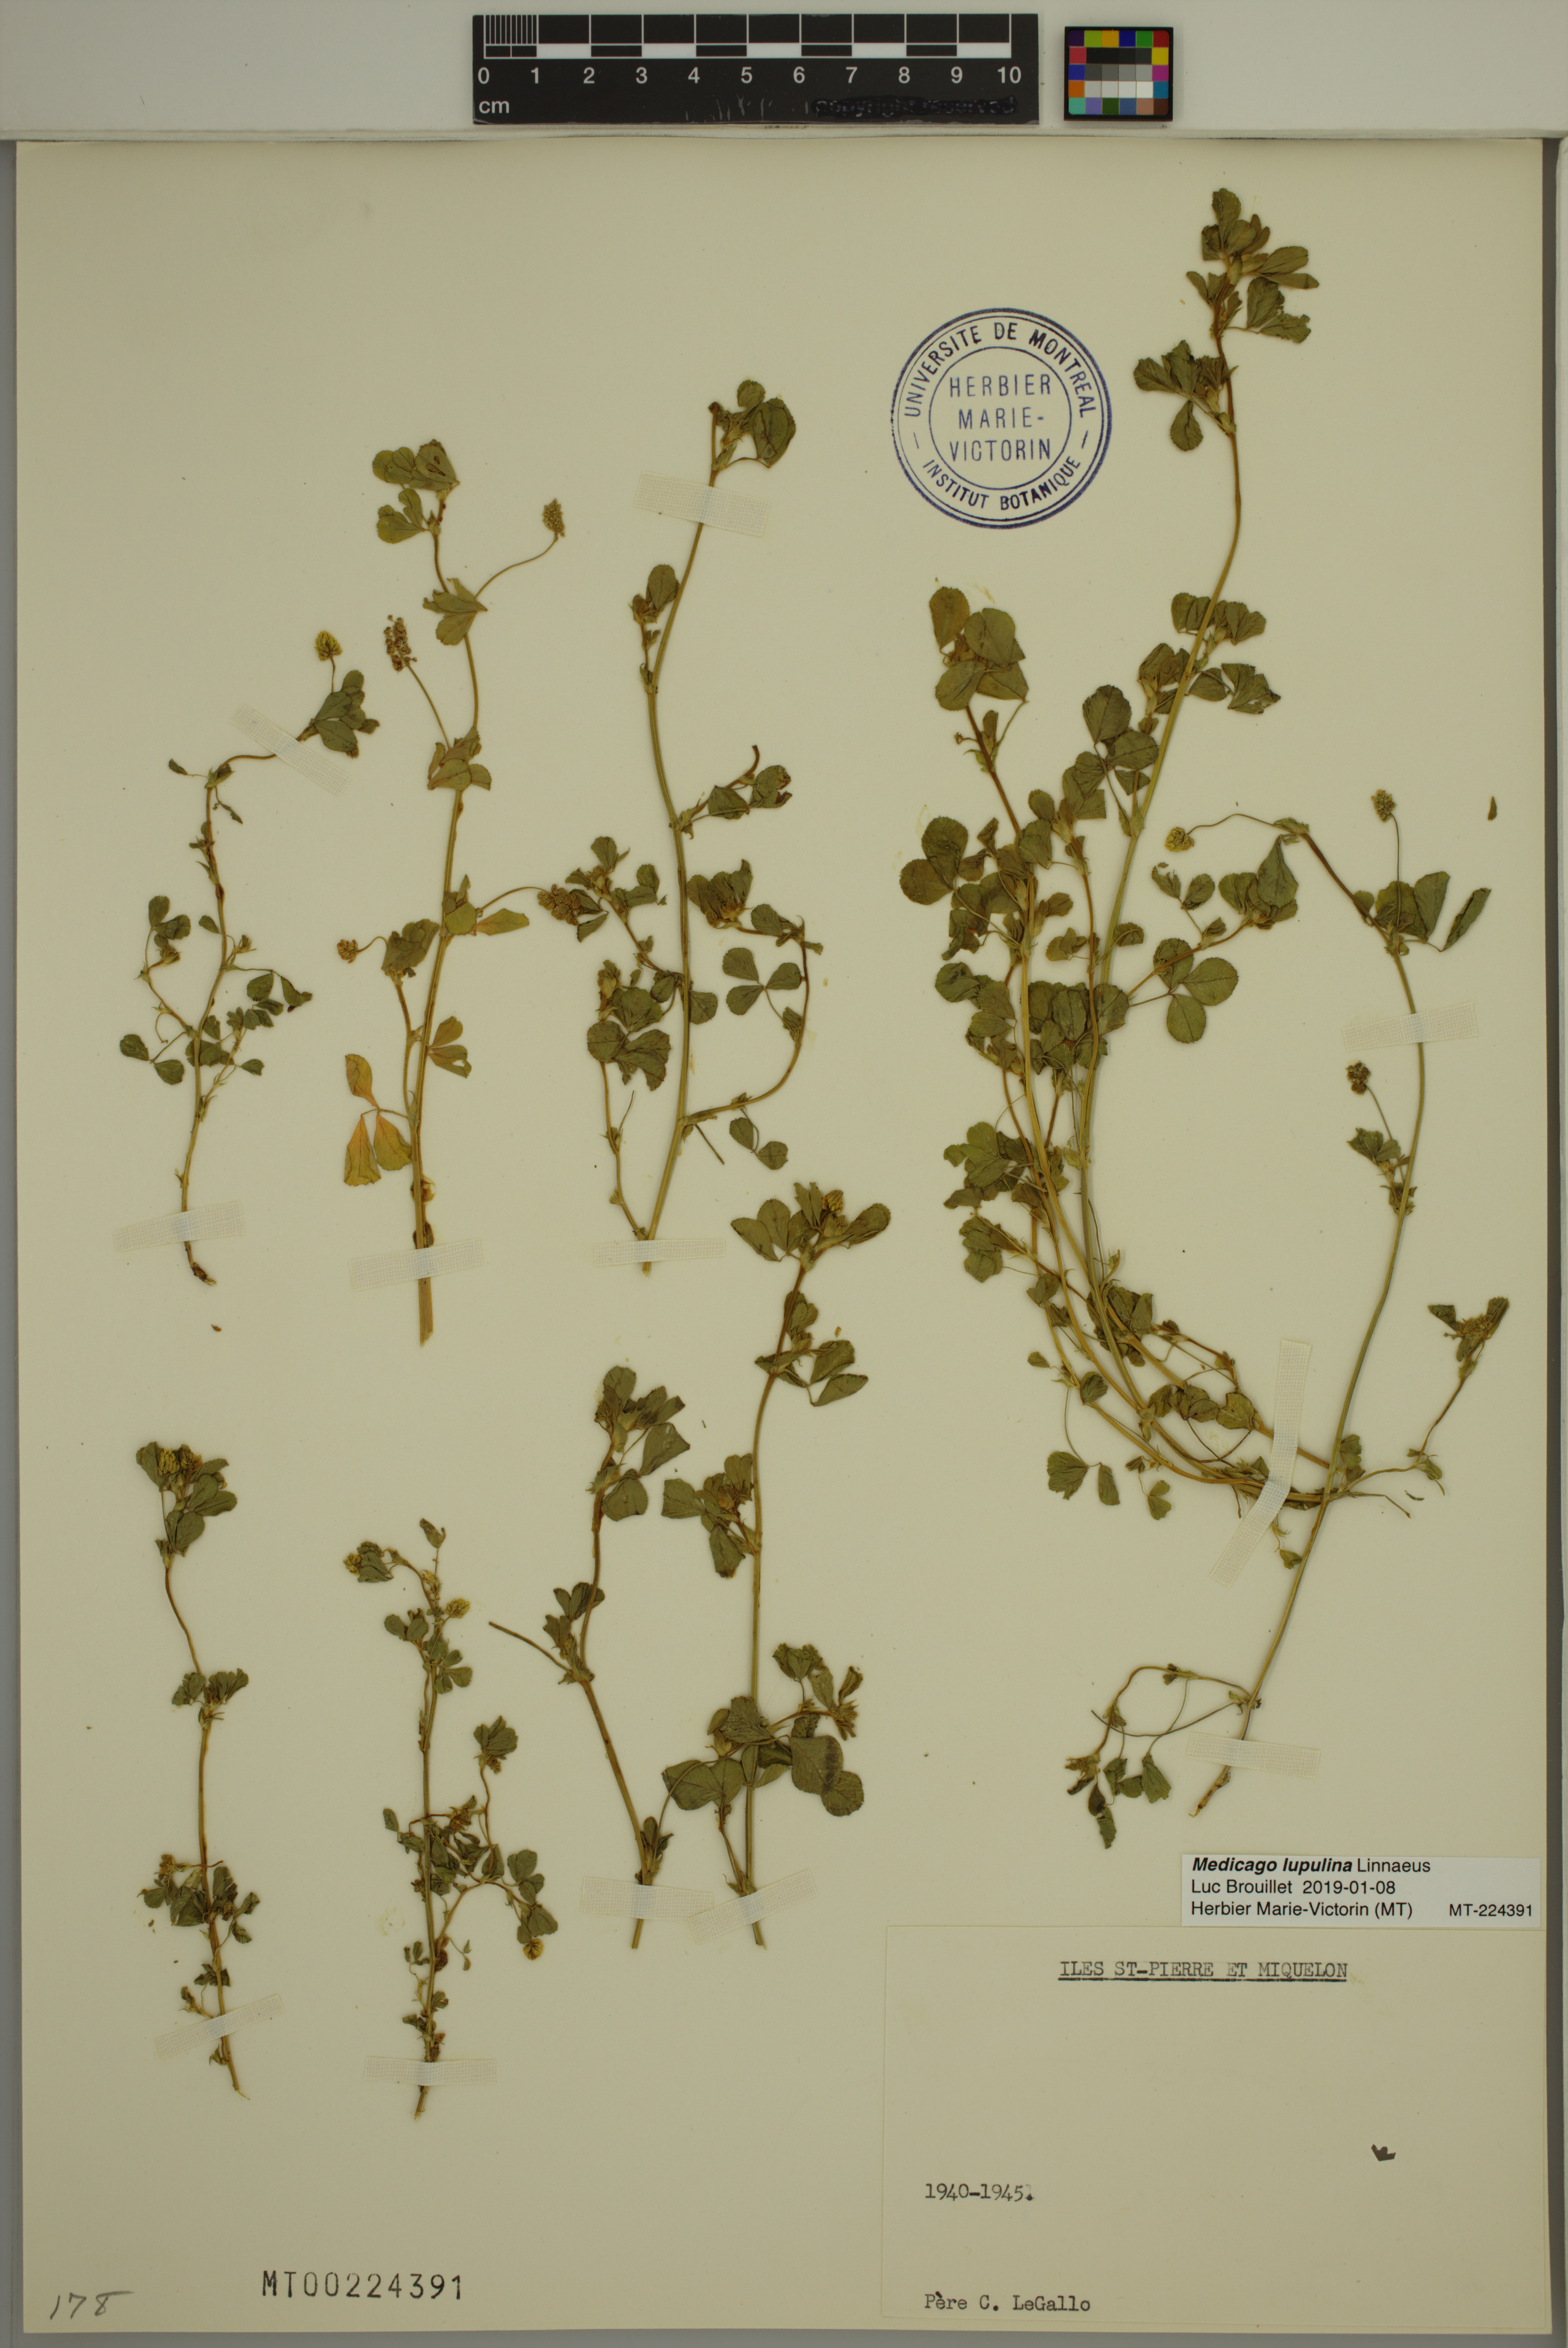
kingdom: Plantae
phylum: Tracheophyta
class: Magnoliopsida
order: Fabales
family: Fabaceae
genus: Medicago
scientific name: Medicago lupulina
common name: Black medick
